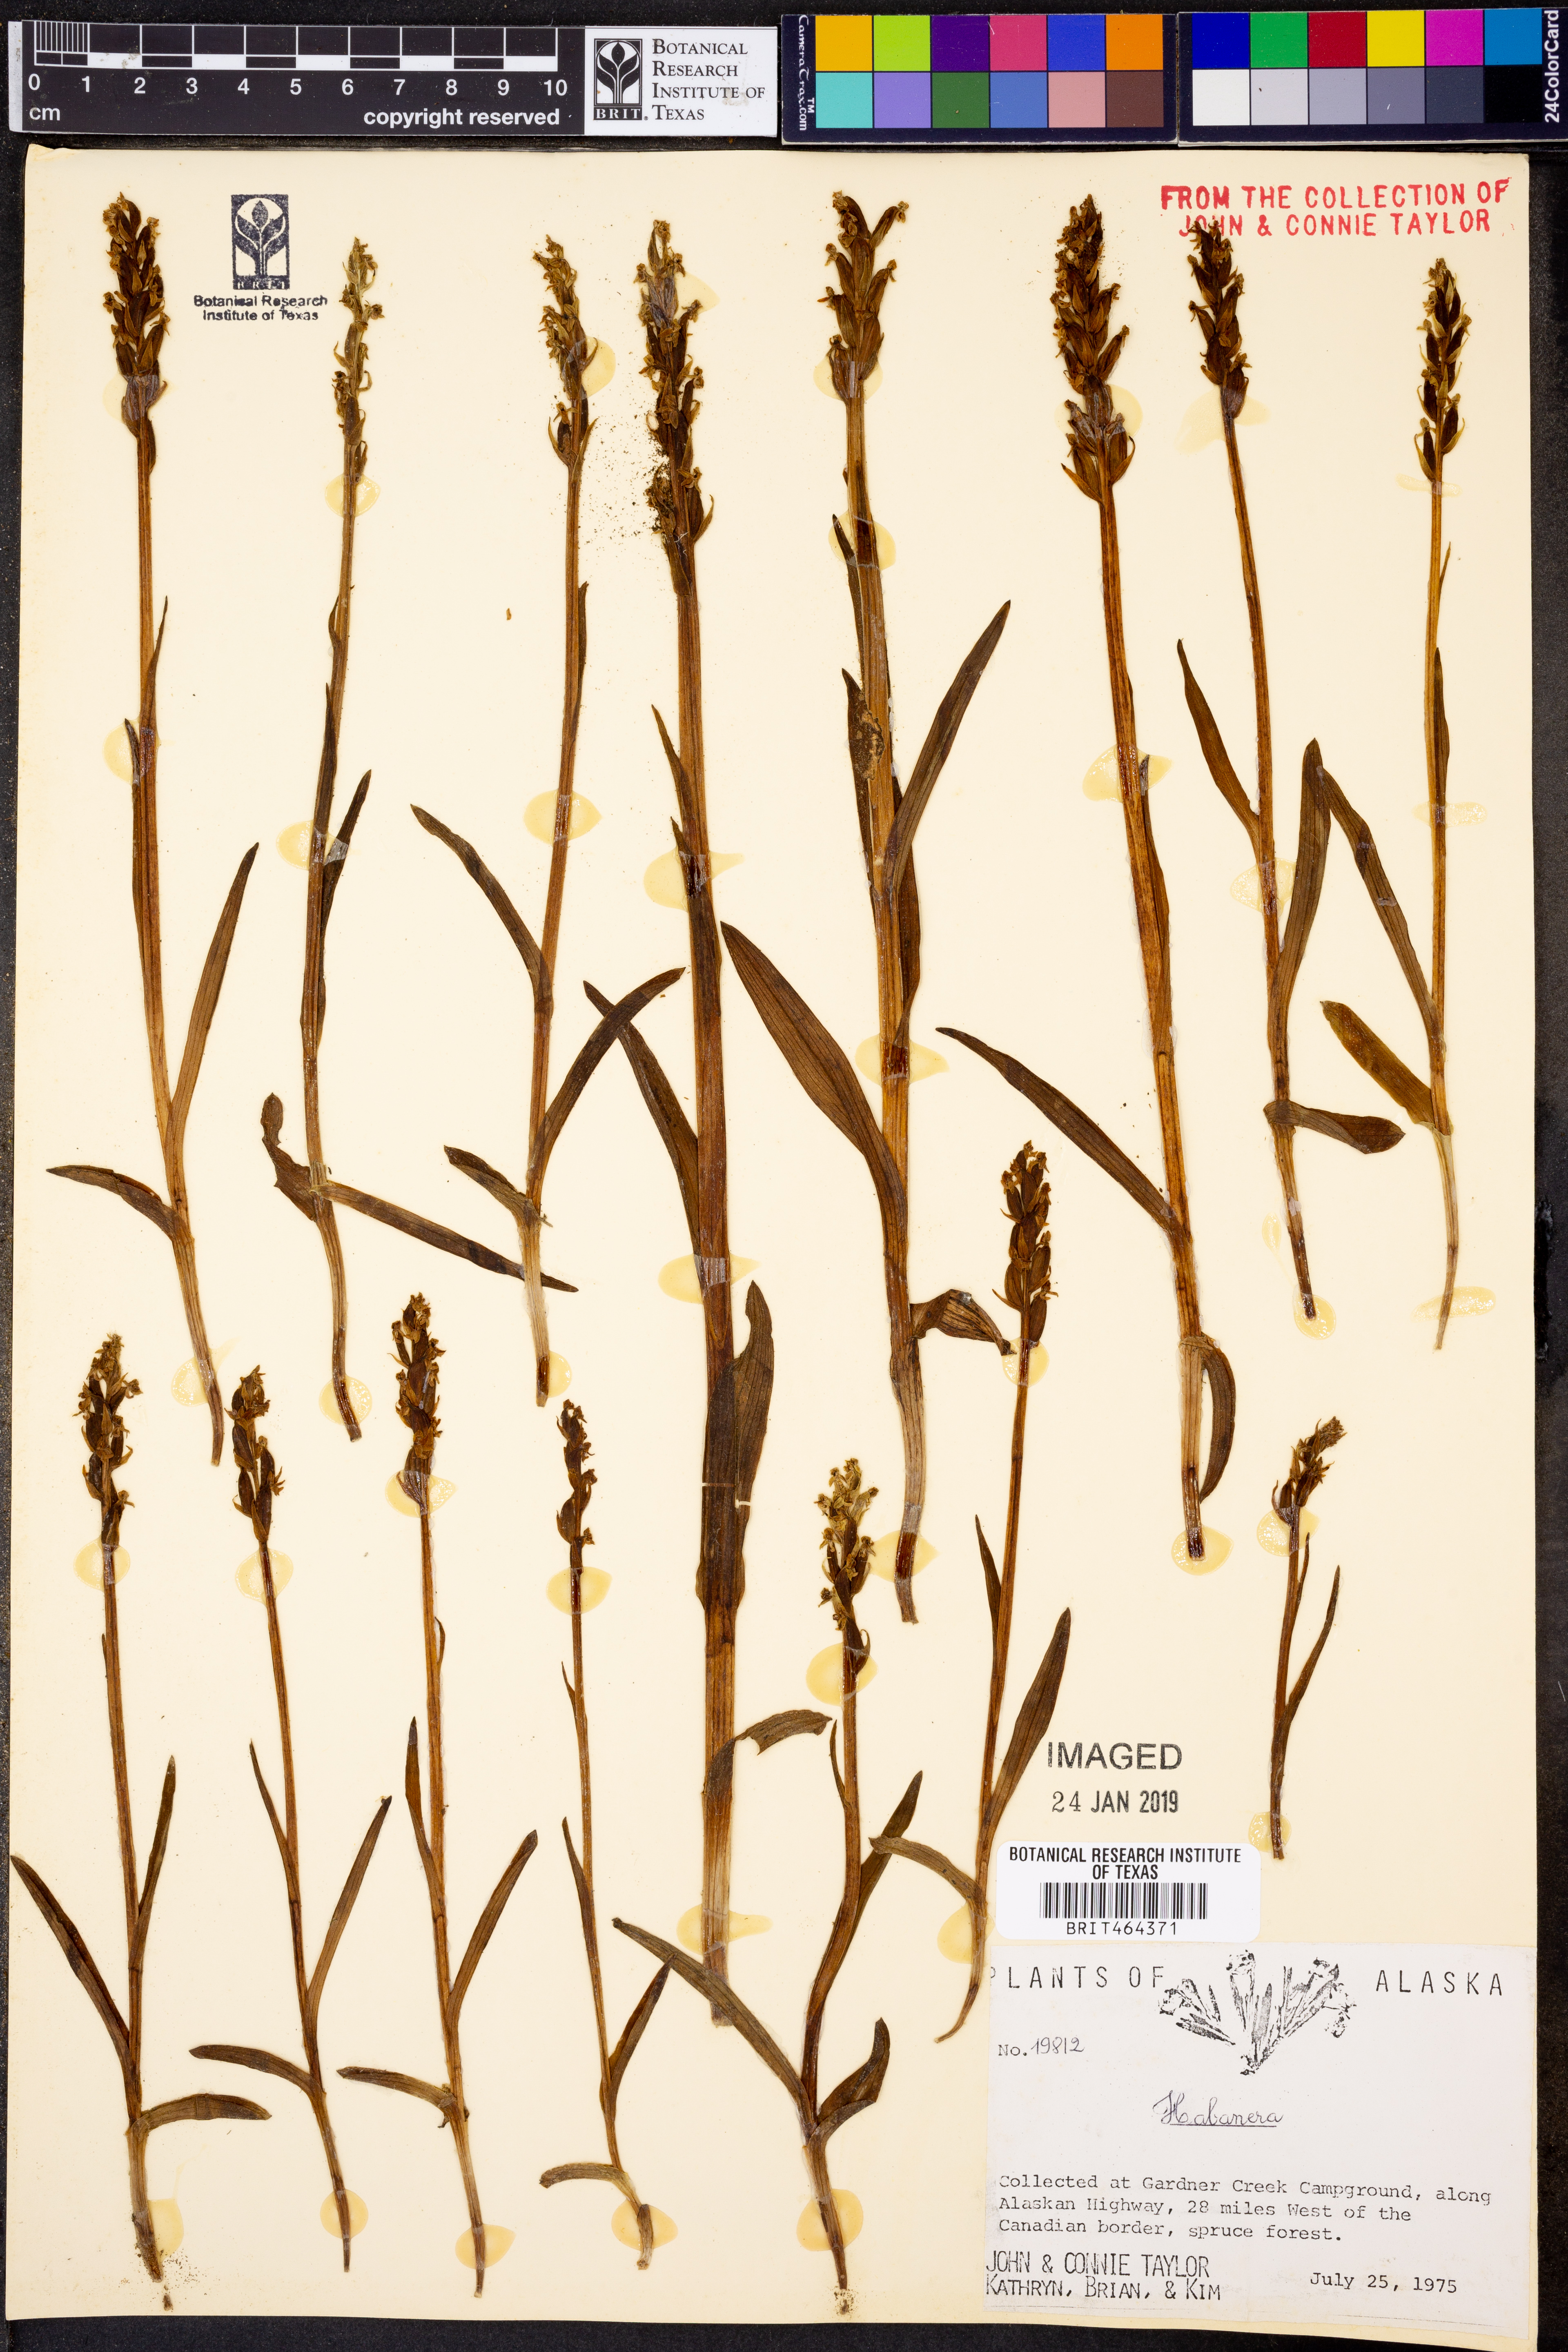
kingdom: Plantae
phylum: Tracheophyta
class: Liliopsida
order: Asparagales
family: Orchidaceae
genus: Habenaria
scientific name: Habenaria
